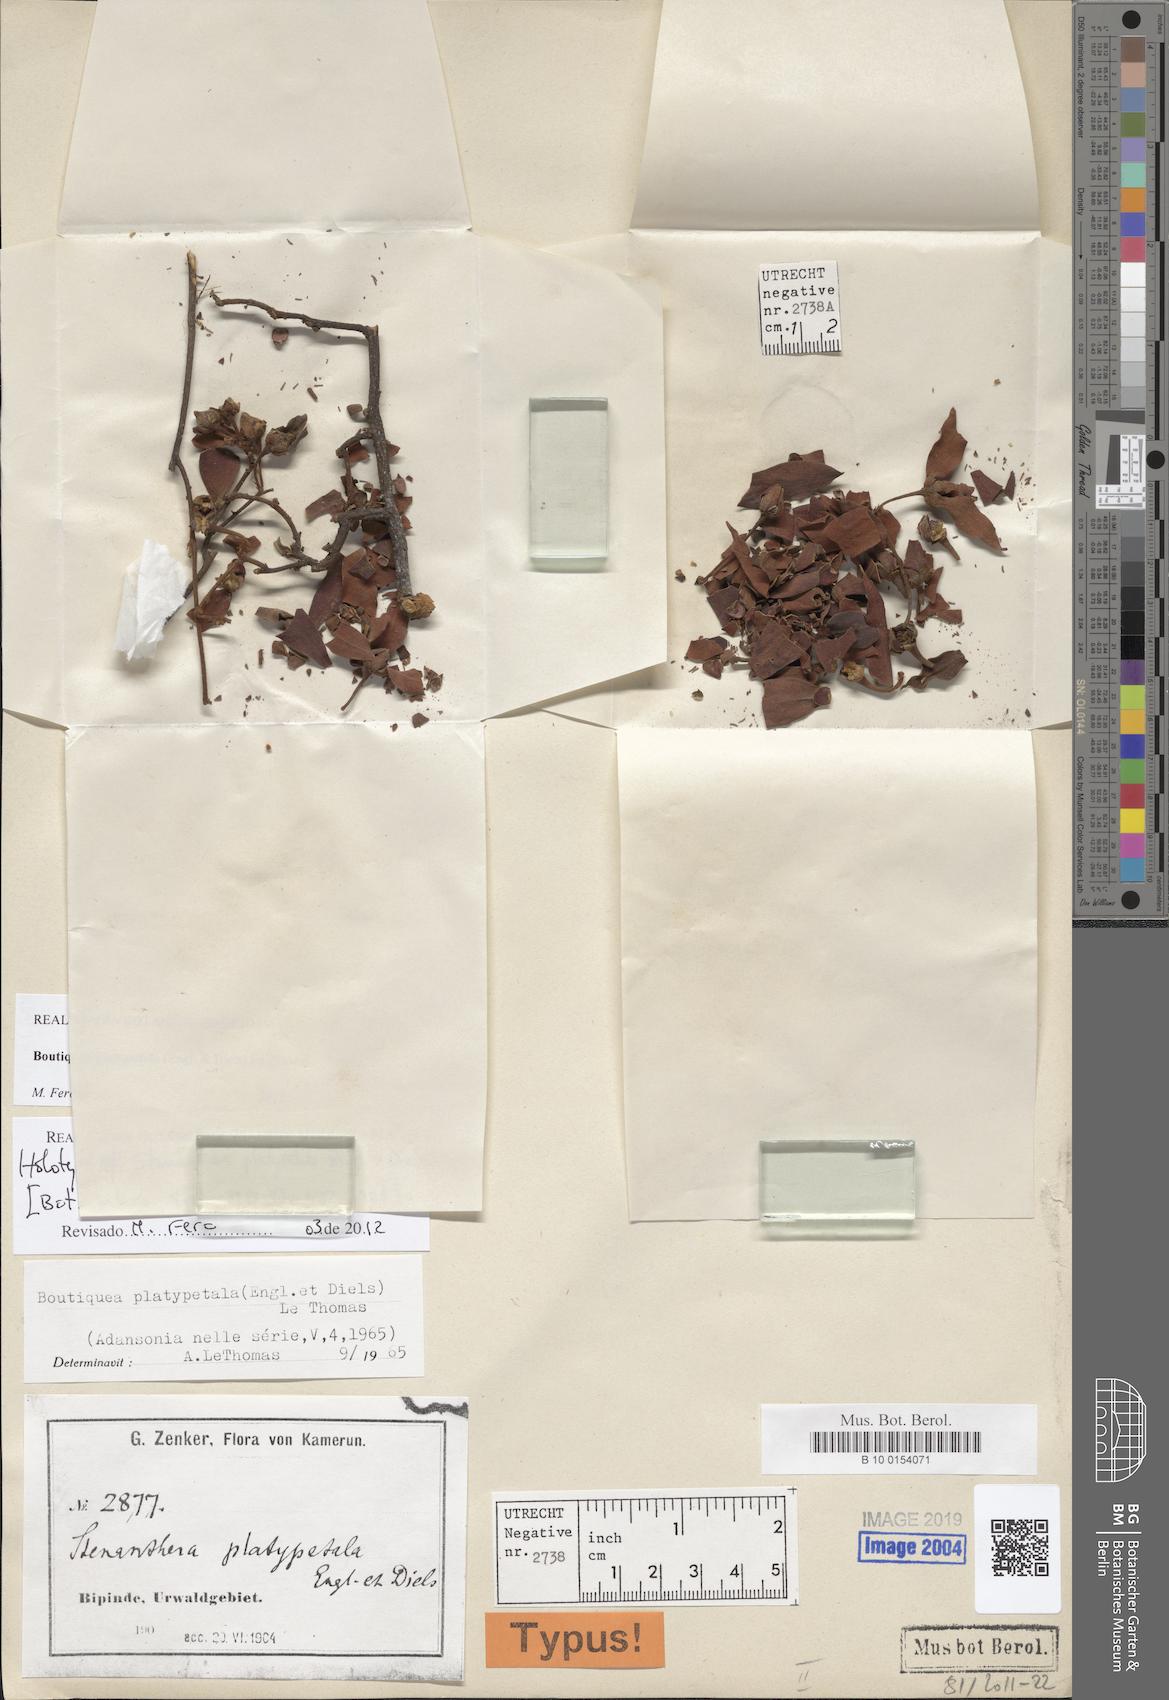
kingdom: Plantae
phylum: Tracheophyta
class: Magnoliopsida
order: Magnoliales
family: Annonaceae
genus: Boutiquea
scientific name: Boutiquea platypetala
